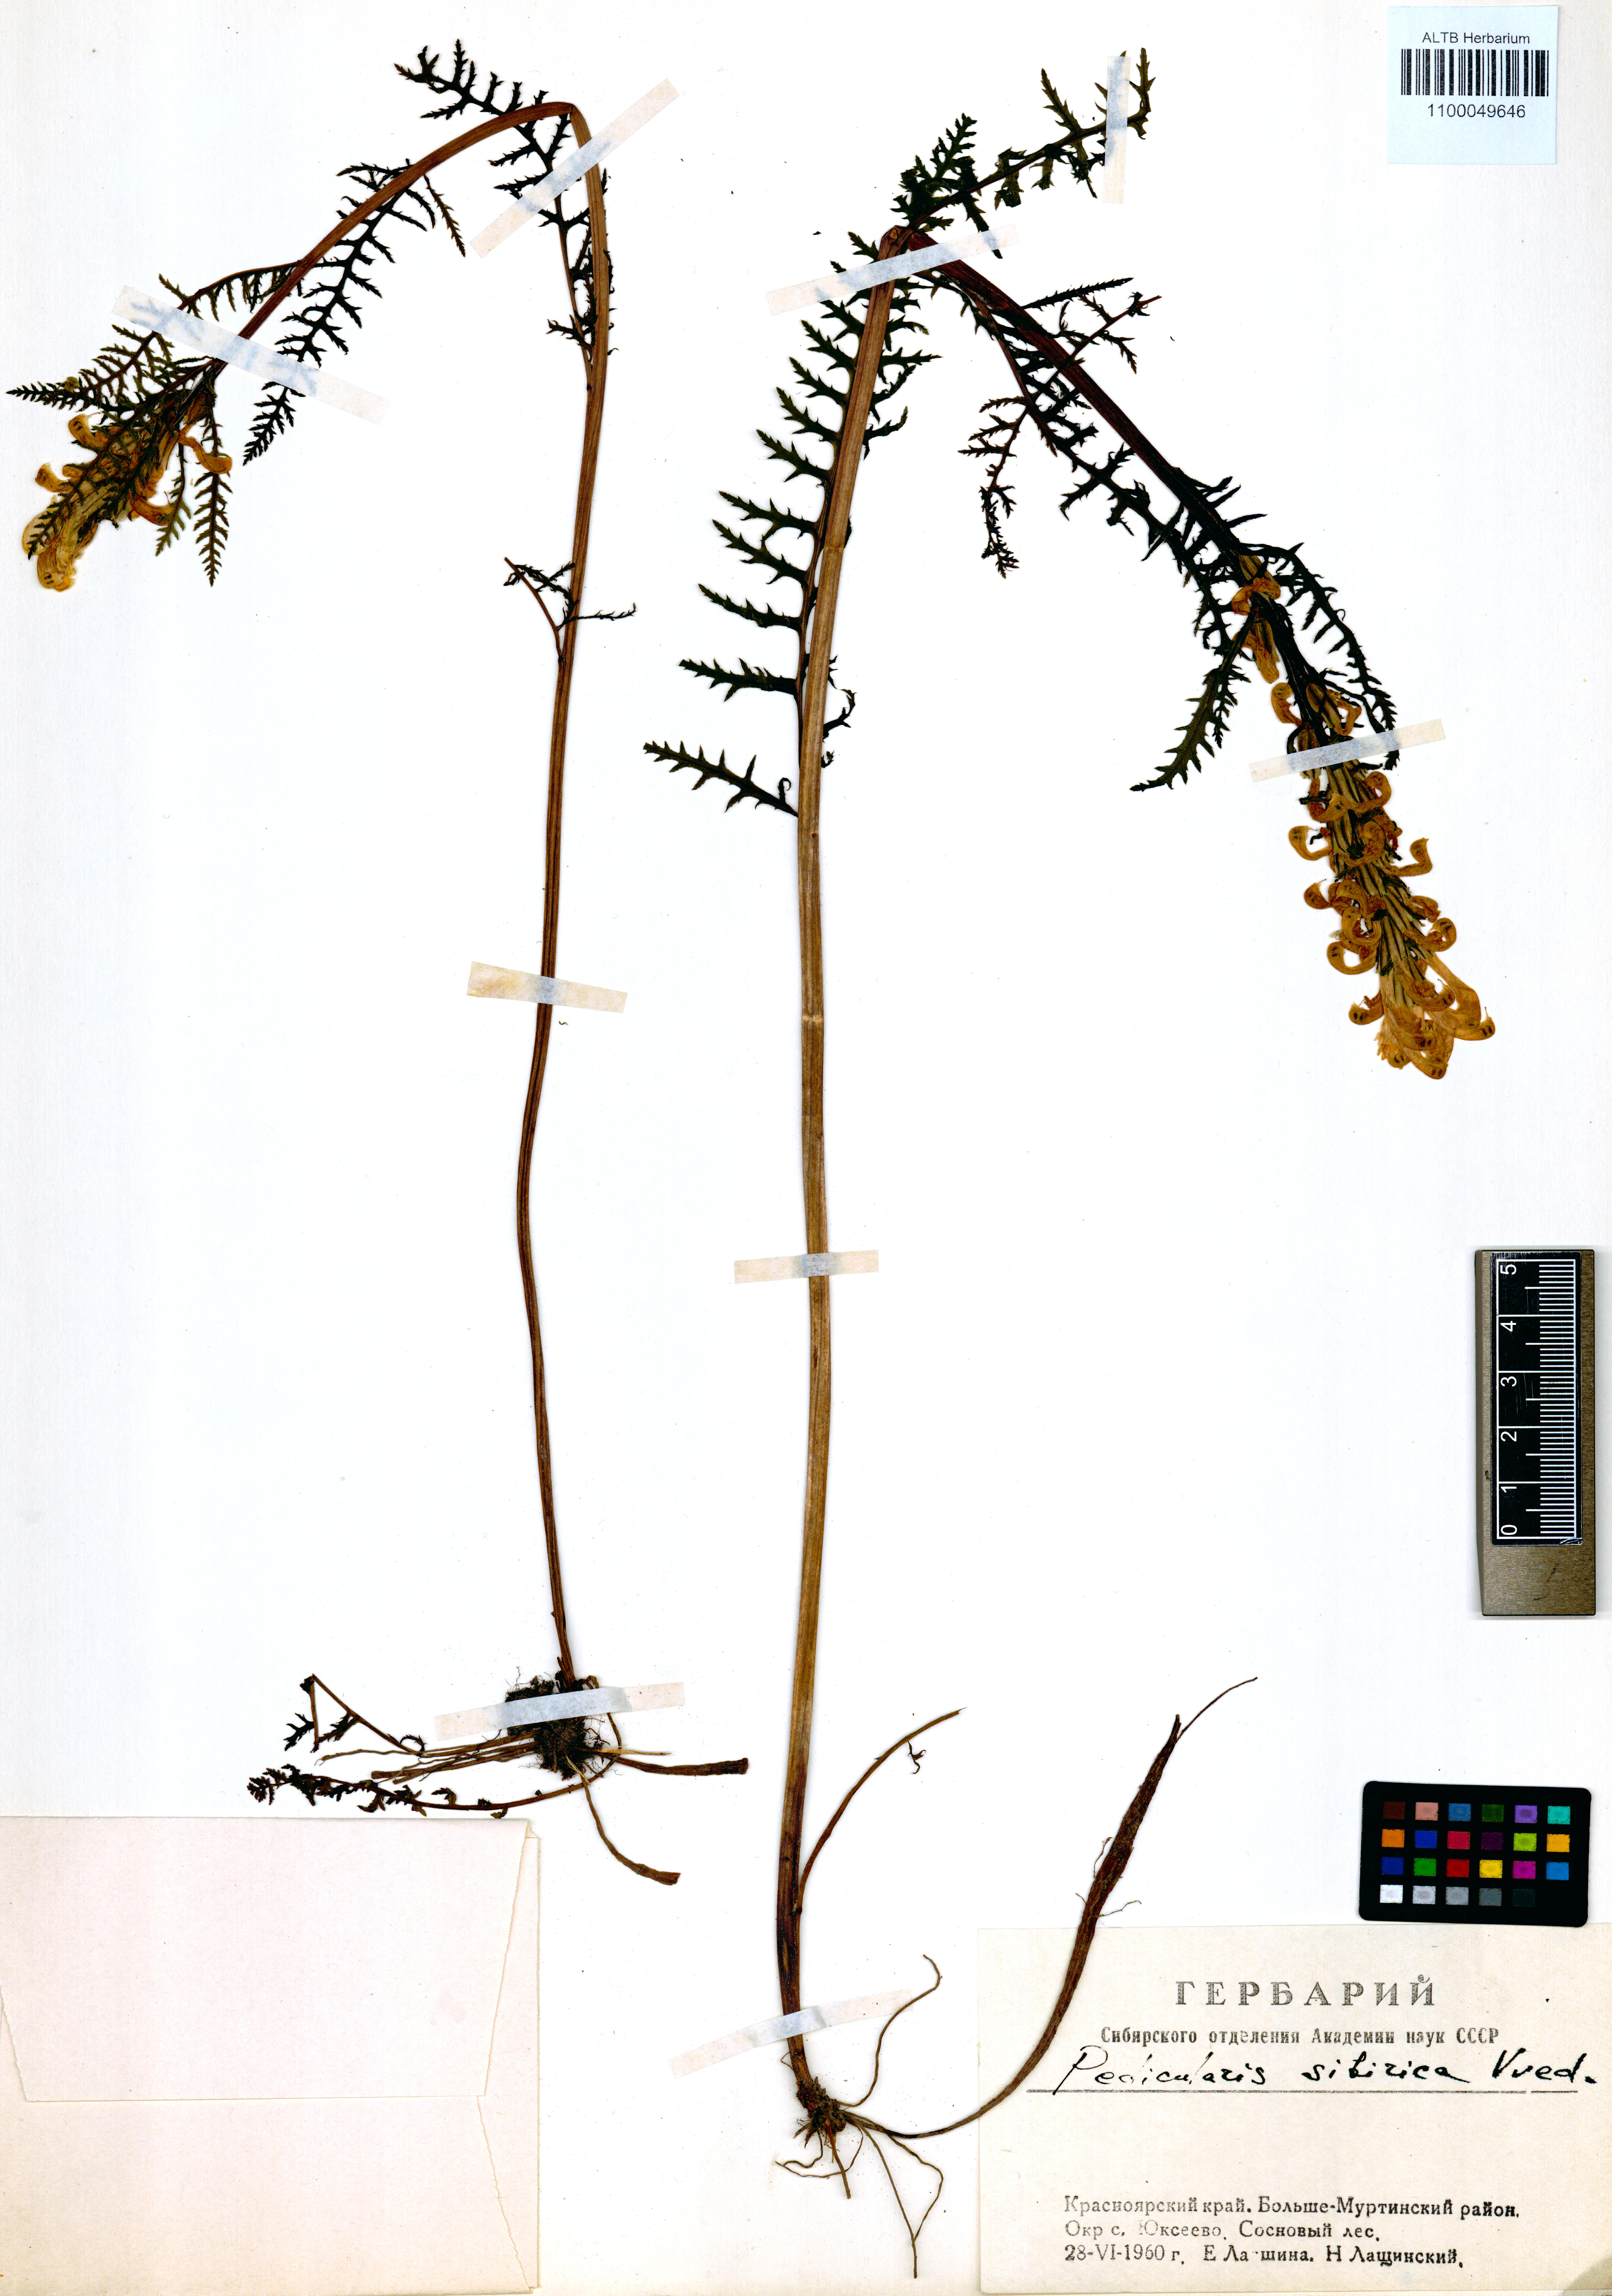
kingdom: Plantae
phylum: Tracheophyta
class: Magnoliopsida
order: Lamiales
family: Orobanchaceae
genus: Pedicularis
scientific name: Pedicularis sibirica
